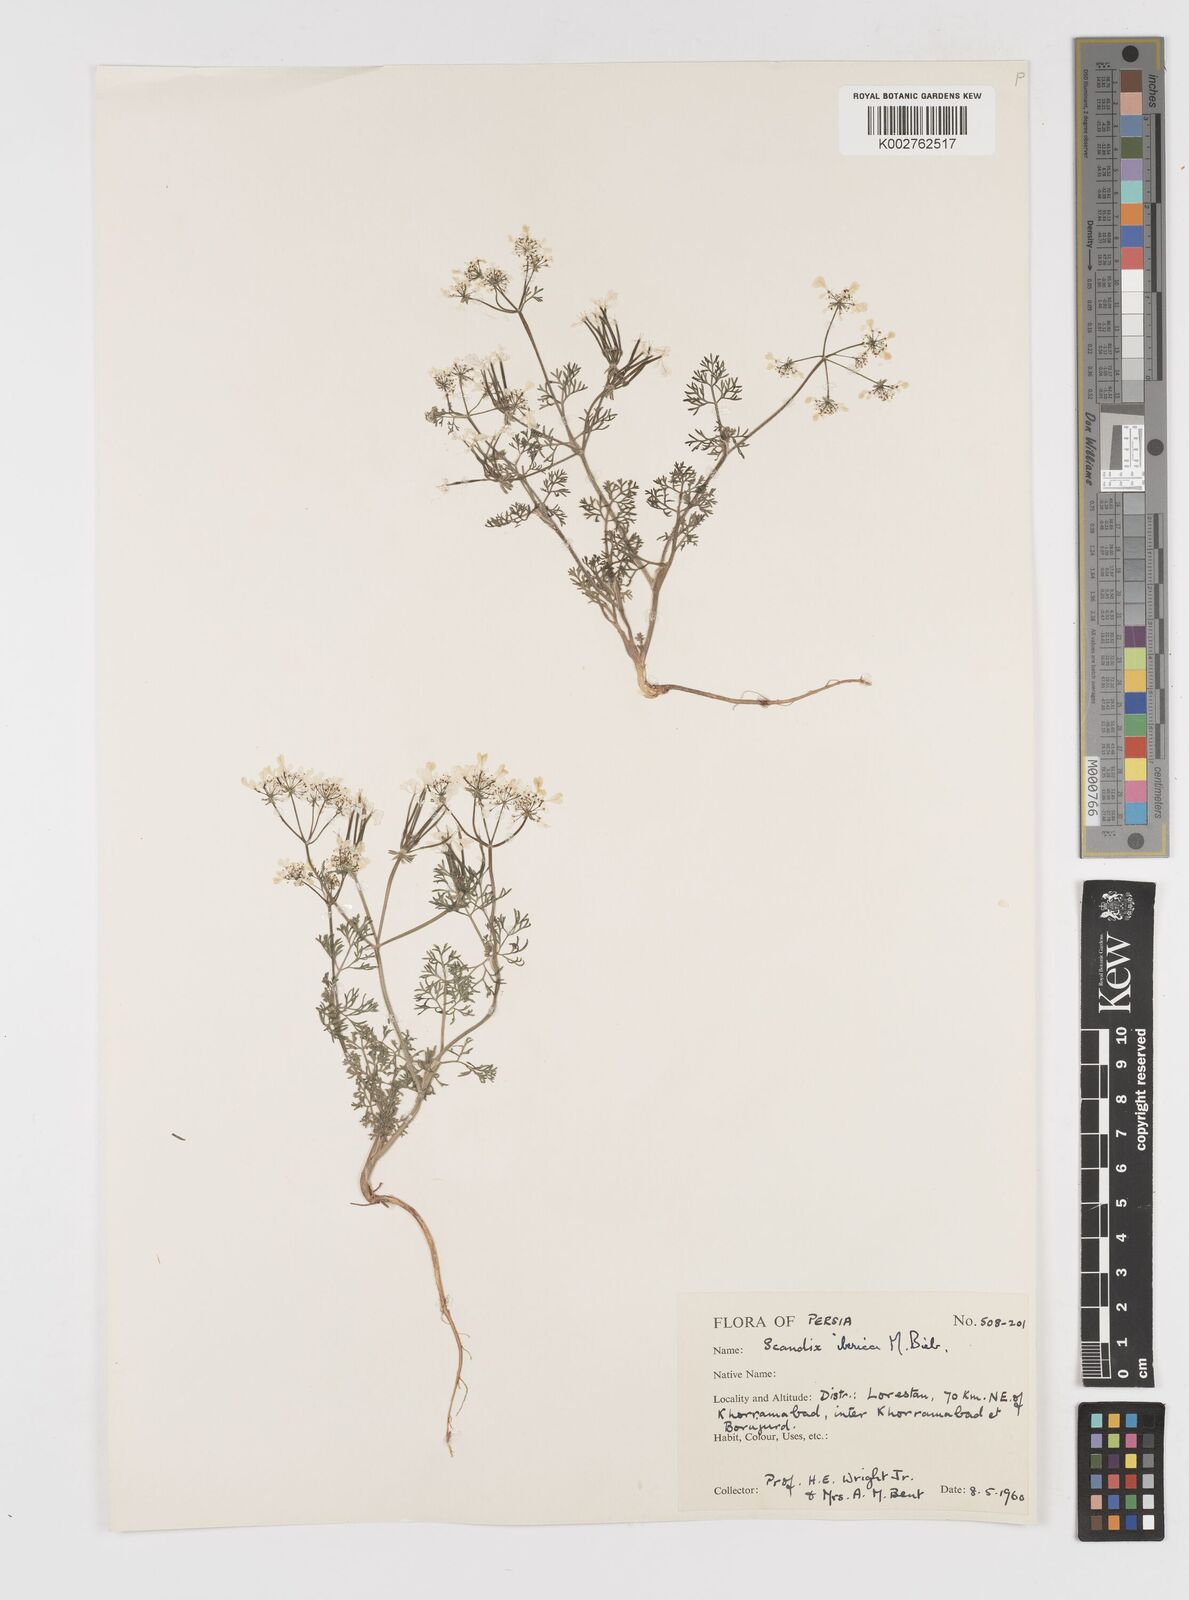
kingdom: Plantae
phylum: Tracheophyta
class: Magnoliopsida
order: Apiales
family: Apiaceae
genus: Scandix
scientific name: Scandix iberica
